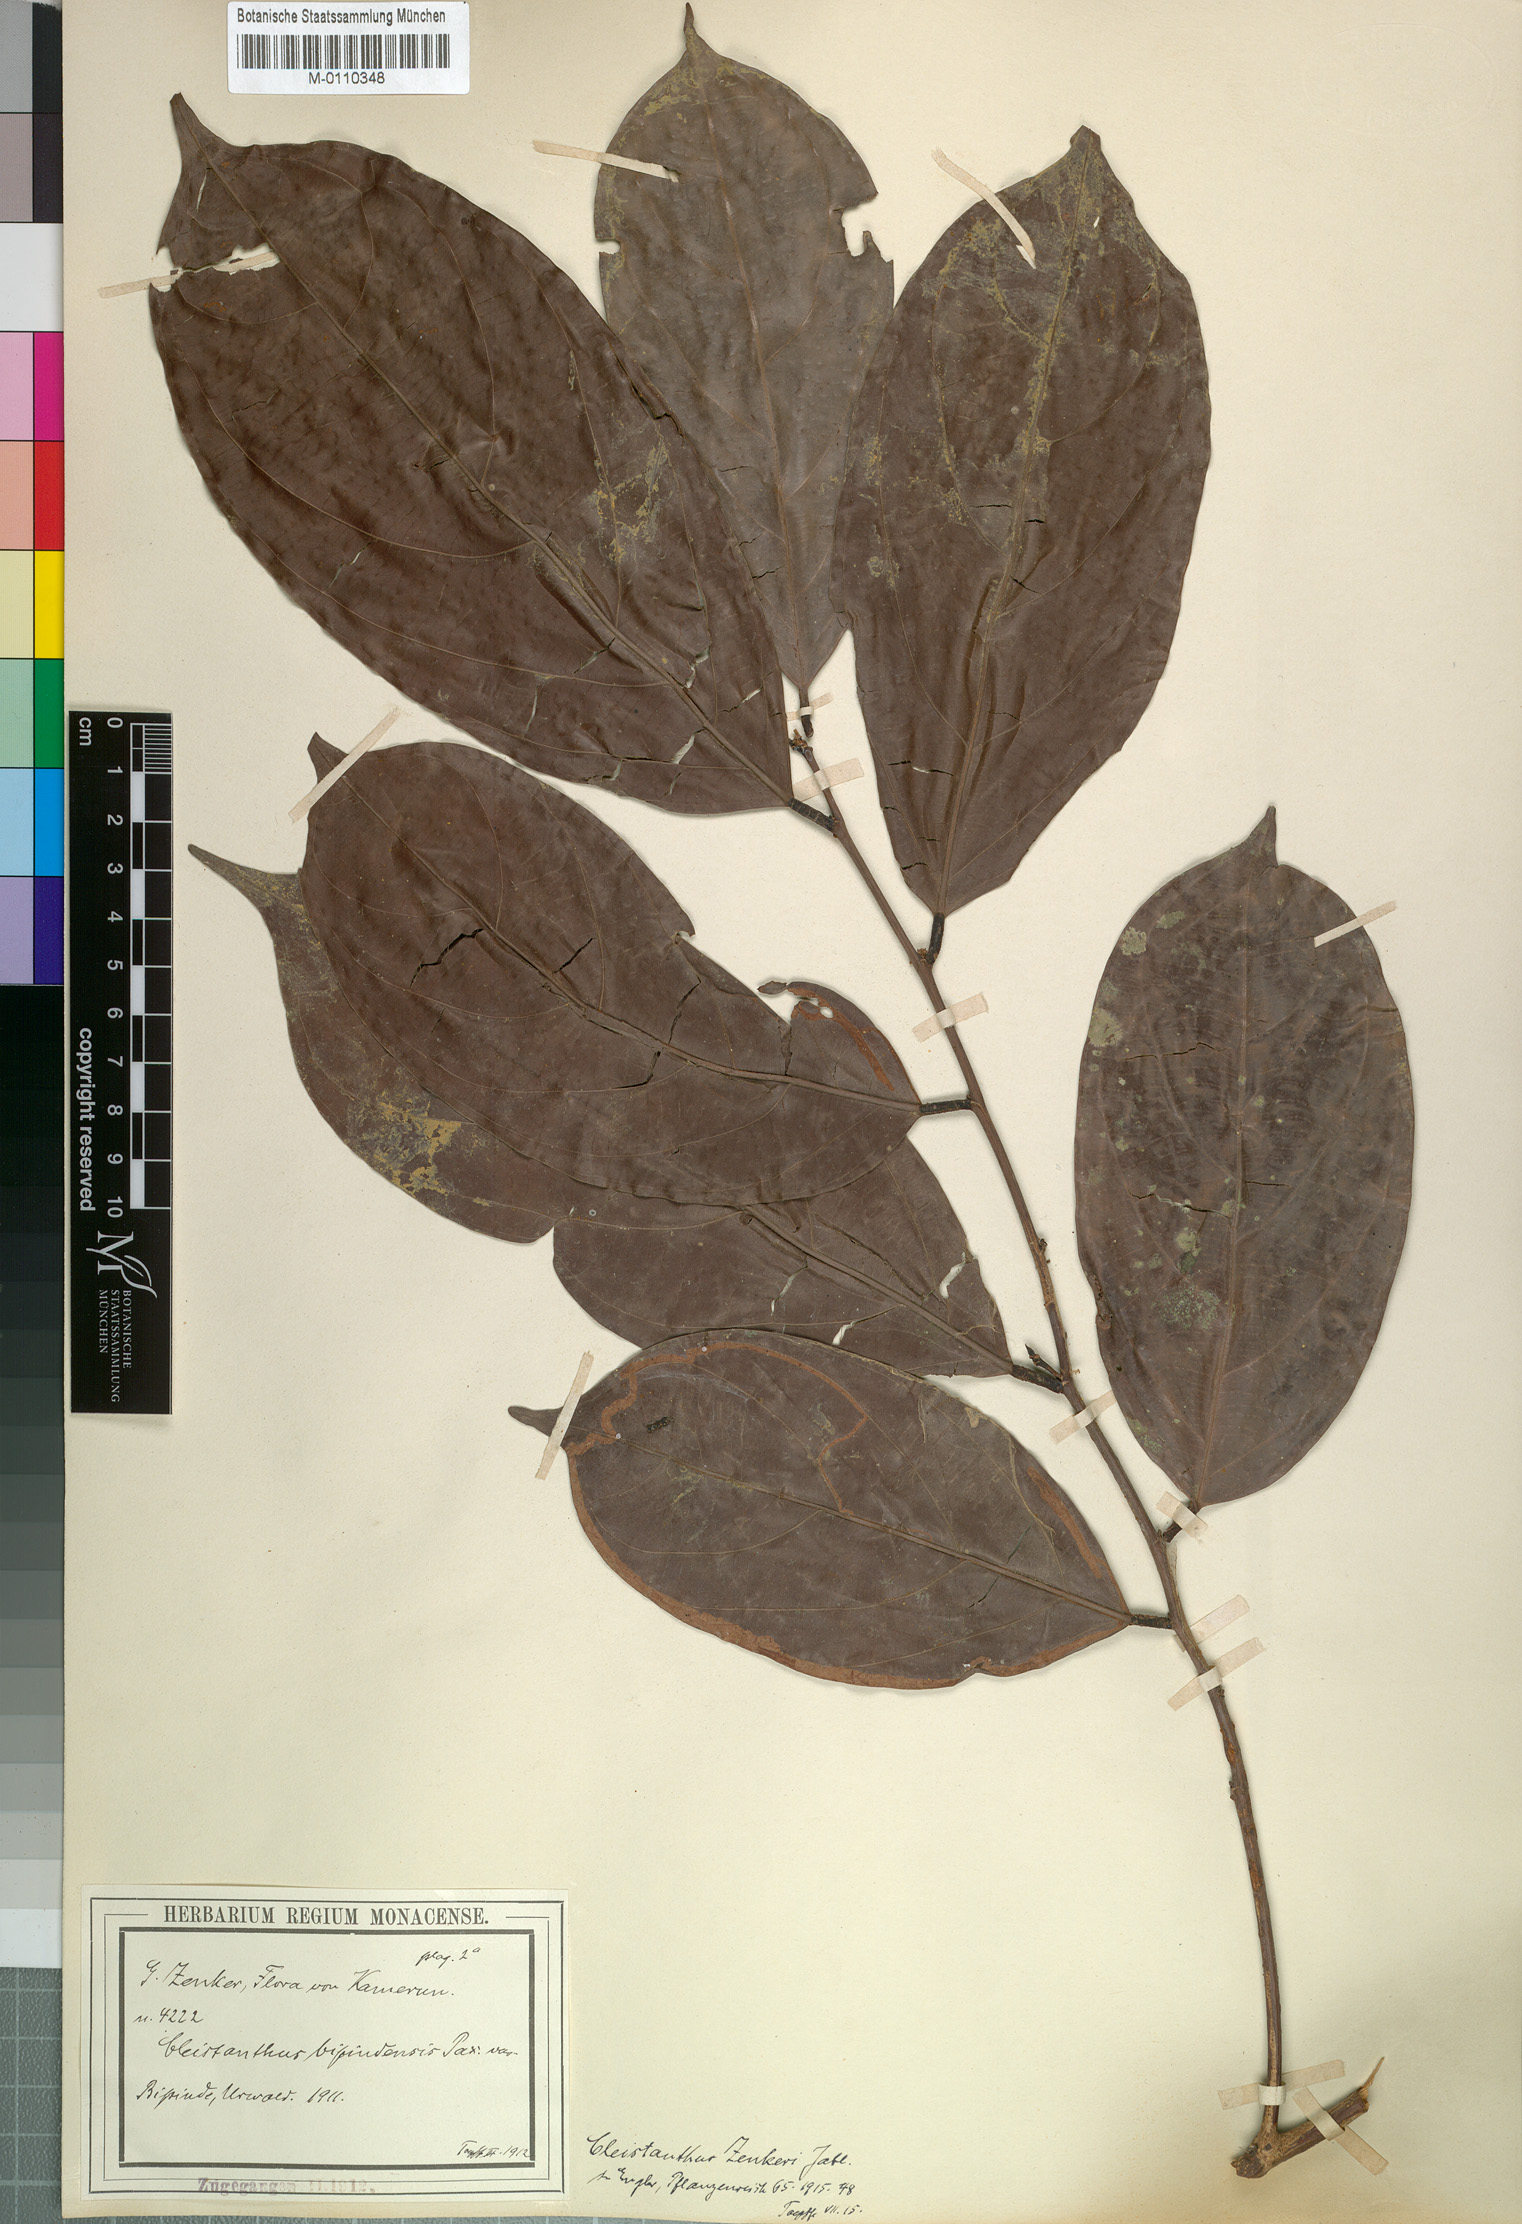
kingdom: Plantae
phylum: Tracheophyta
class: Magnoliopsida
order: Malpighiales
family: Phyllanthaceae
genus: Cleistanthus
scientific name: Cleistanthus zenkeri
